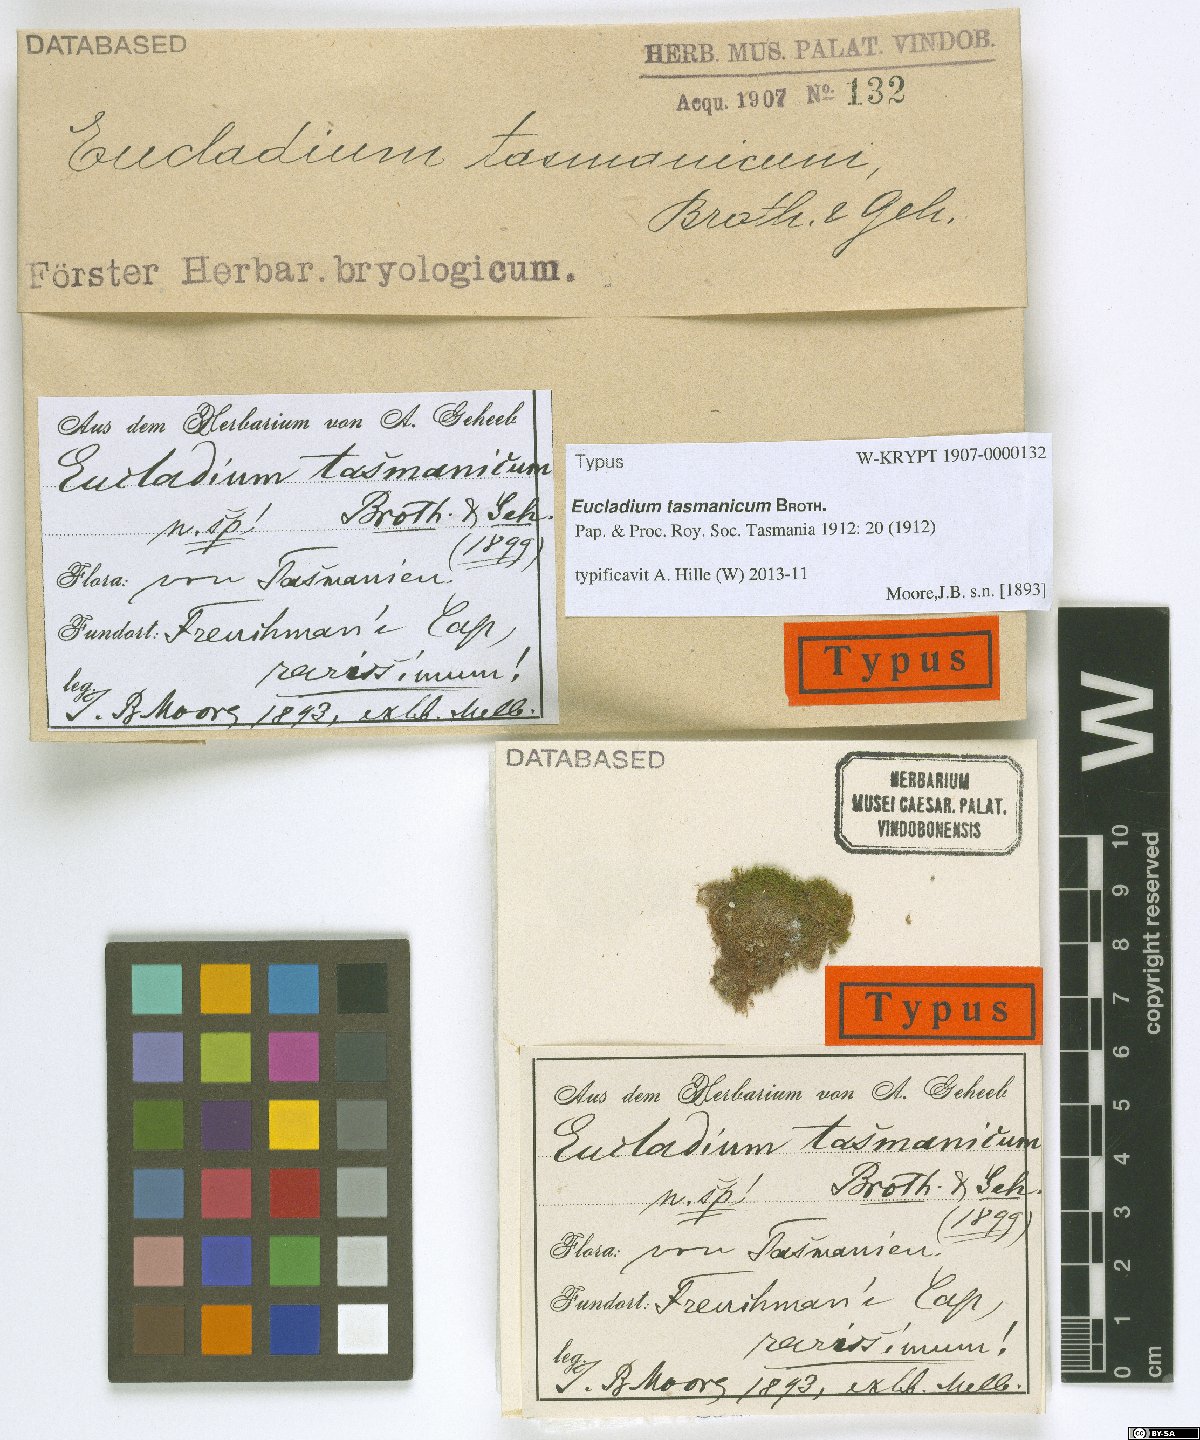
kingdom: Plantae
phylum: Bryophyta
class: Bryopsida
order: Pottiales
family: Pottiaceae
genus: Gymnostomum
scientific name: Gymnostomum calcareum
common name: Blunt-leaf tufa-moss
